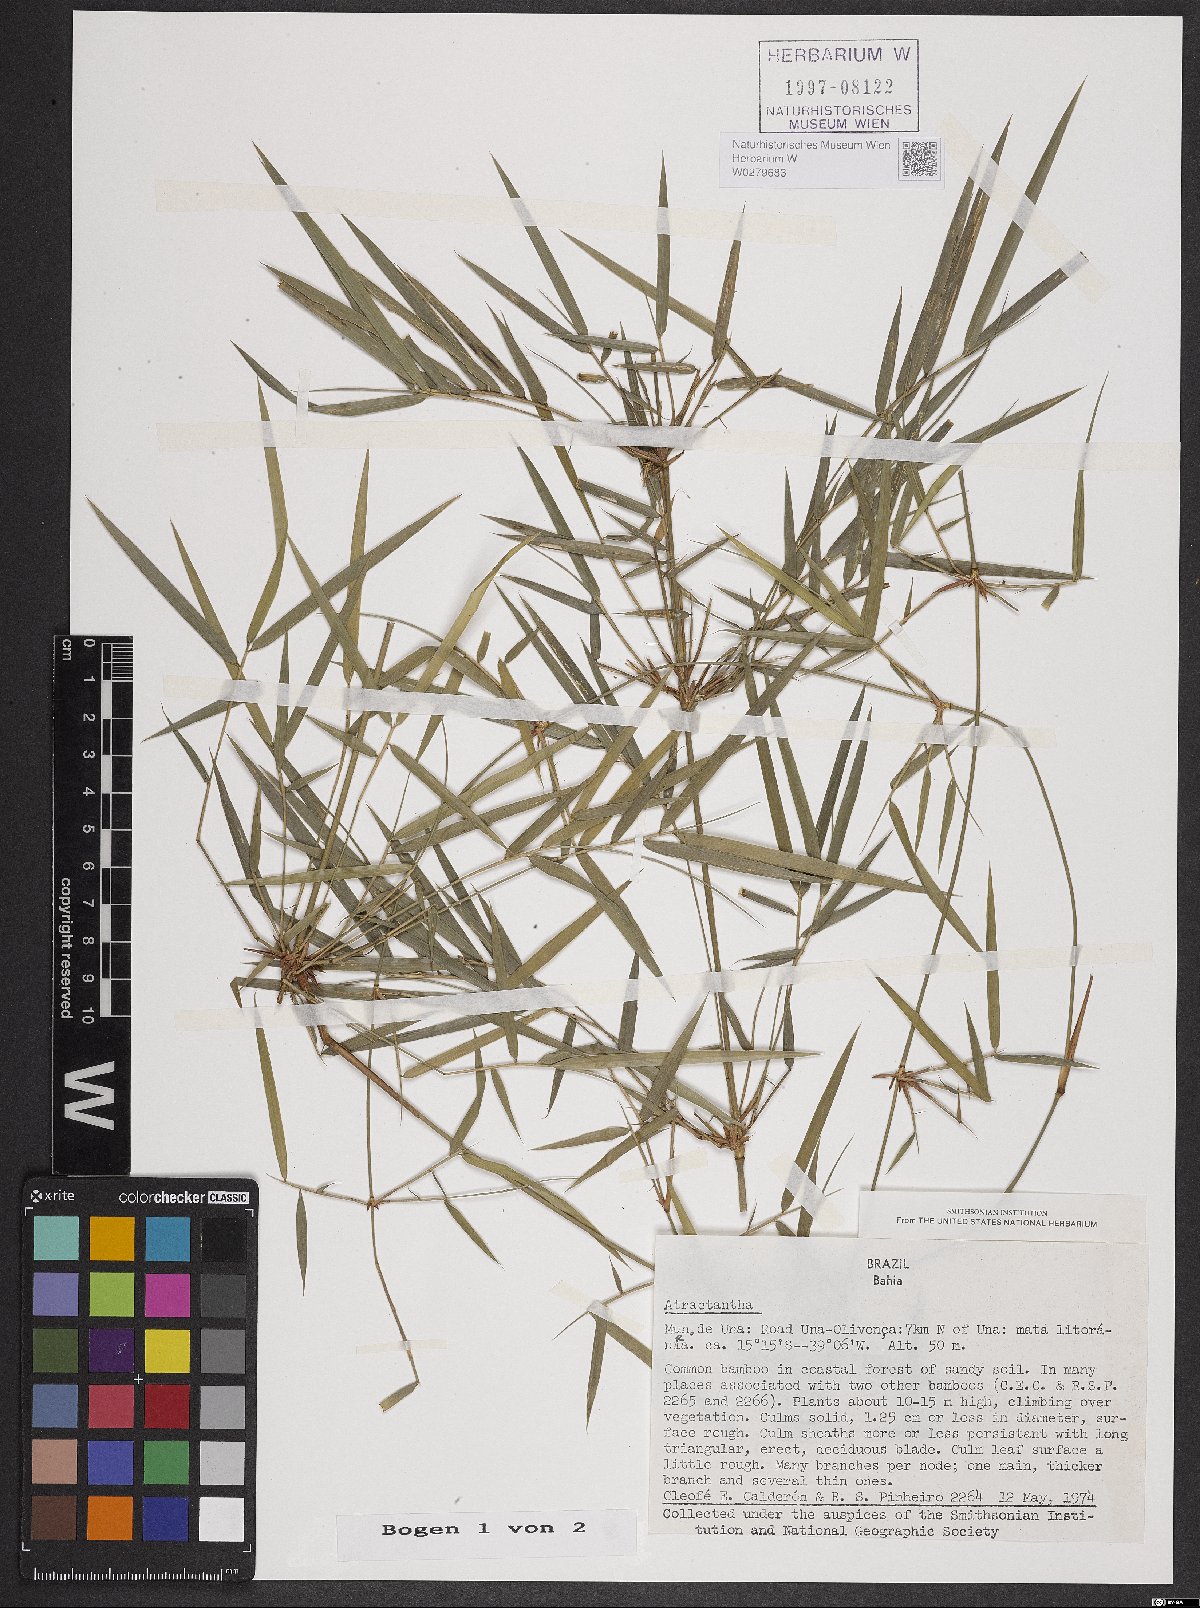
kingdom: Plantae
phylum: Tracheophyta
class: Liliopsida
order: Poales
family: Poaceae
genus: Atractantha
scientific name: Atractantha
